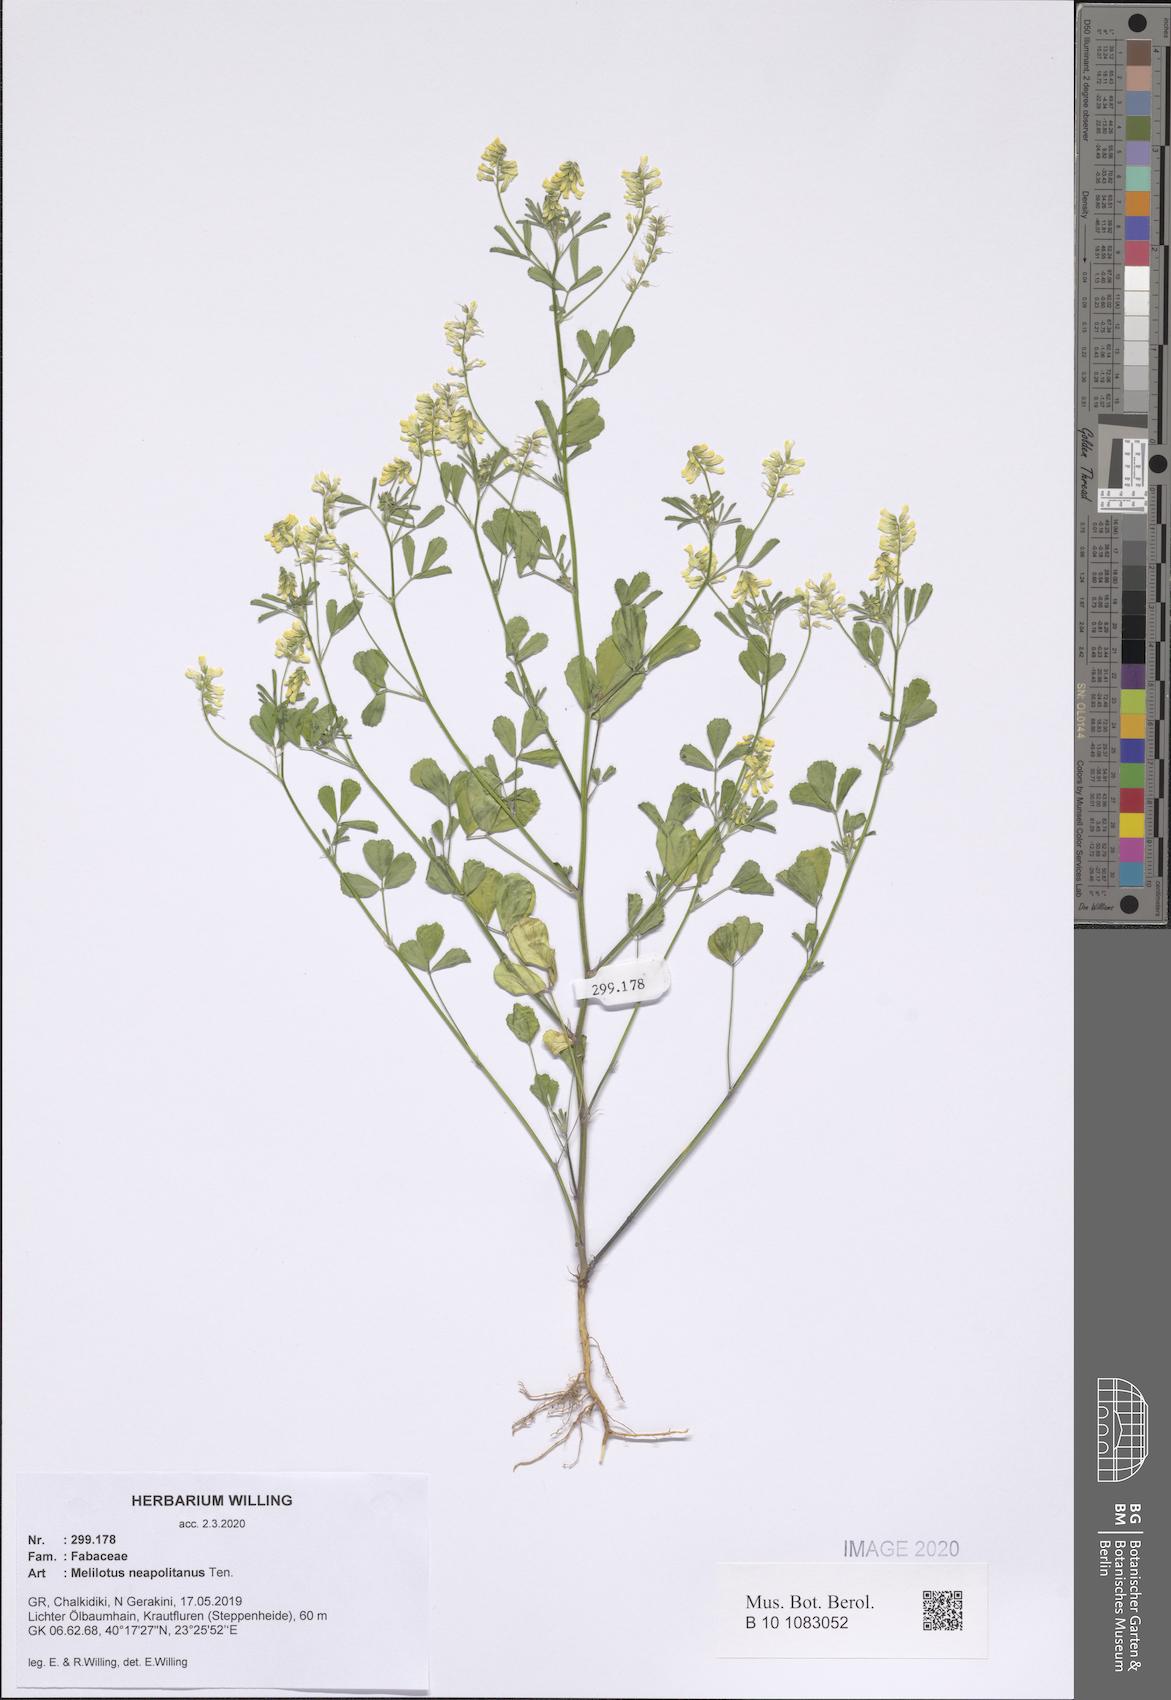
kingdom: Plantae
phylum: Tracheophyta
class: Magnoliopsida
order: Fabales
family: Fabaceae
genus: Melilotus
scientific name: Melilotus neapolitanus
